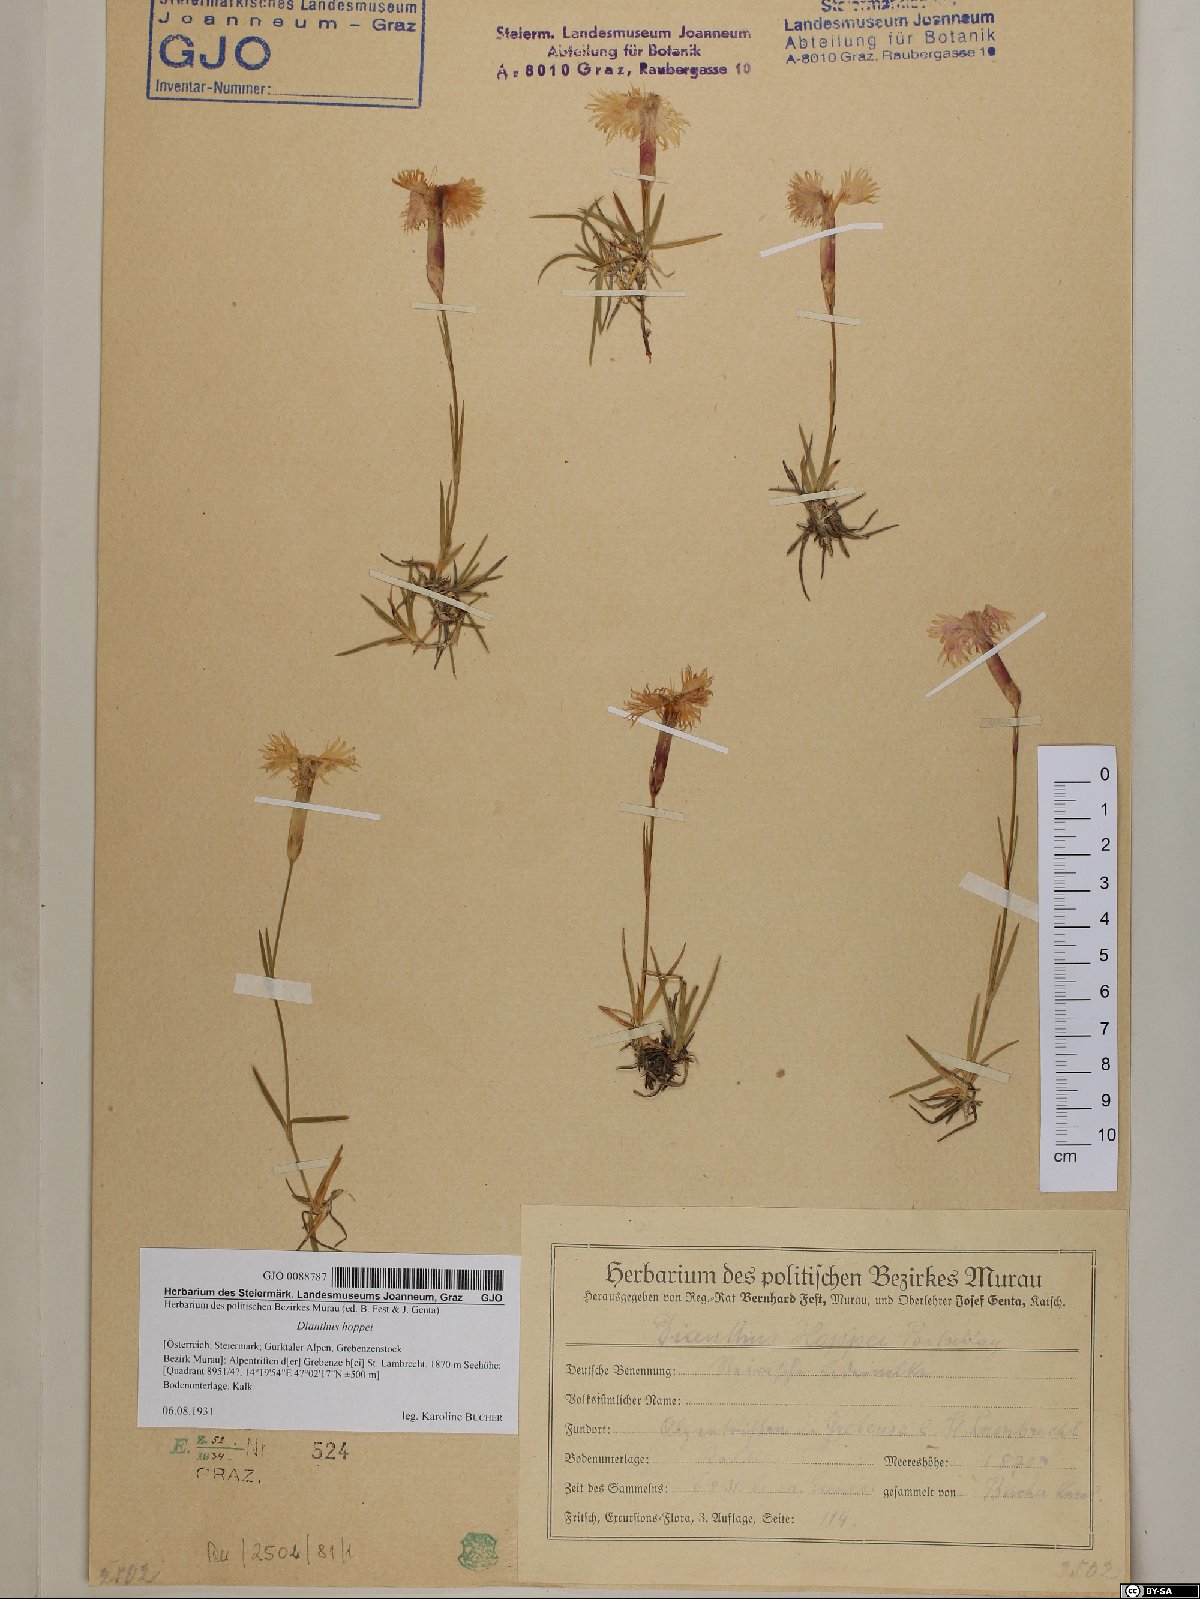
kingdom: Plantae
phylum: Tracheophyta
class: Magnoliopsida
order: Caryophyllales
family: Caryophyllaceae
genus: Dianthus
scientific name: Dianthus plumarius
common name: Pink
